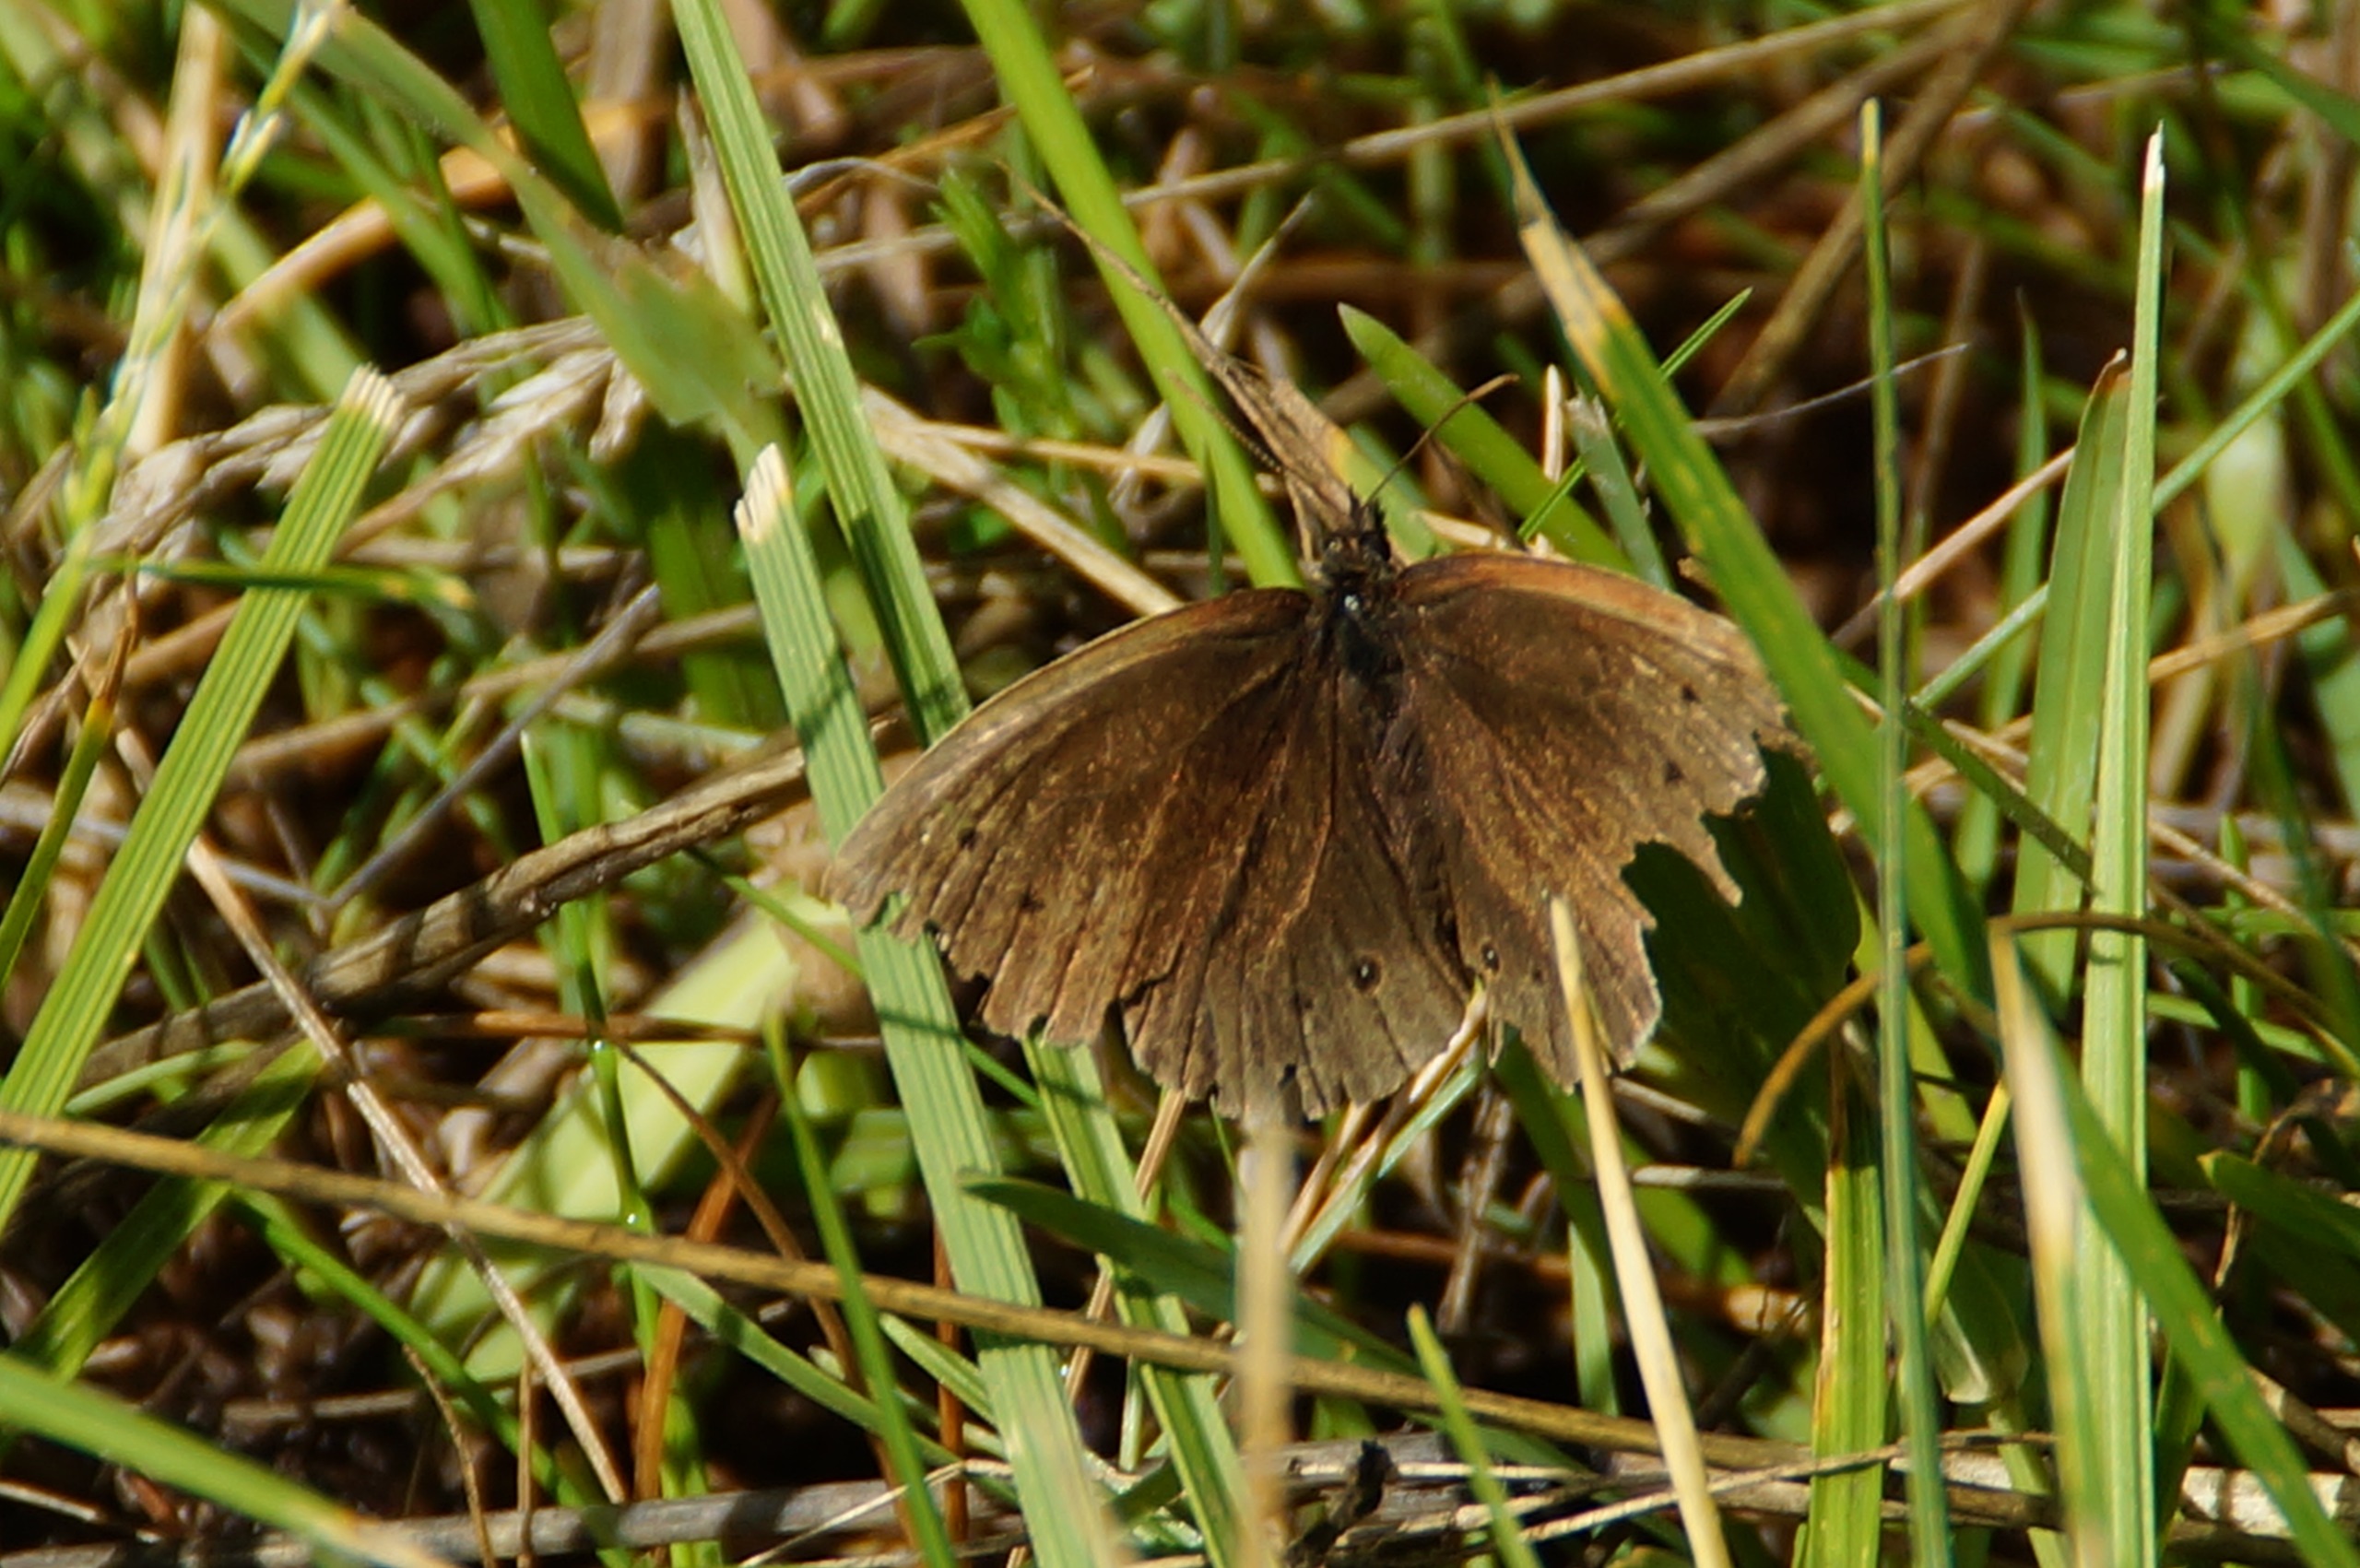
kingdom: Animalia
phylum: Arthropoda
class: Insecta
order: Lepidoptera
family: Nymphalidae
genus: Aphantopus
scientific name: Aphantopus hyperantus
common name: Engrandøje
